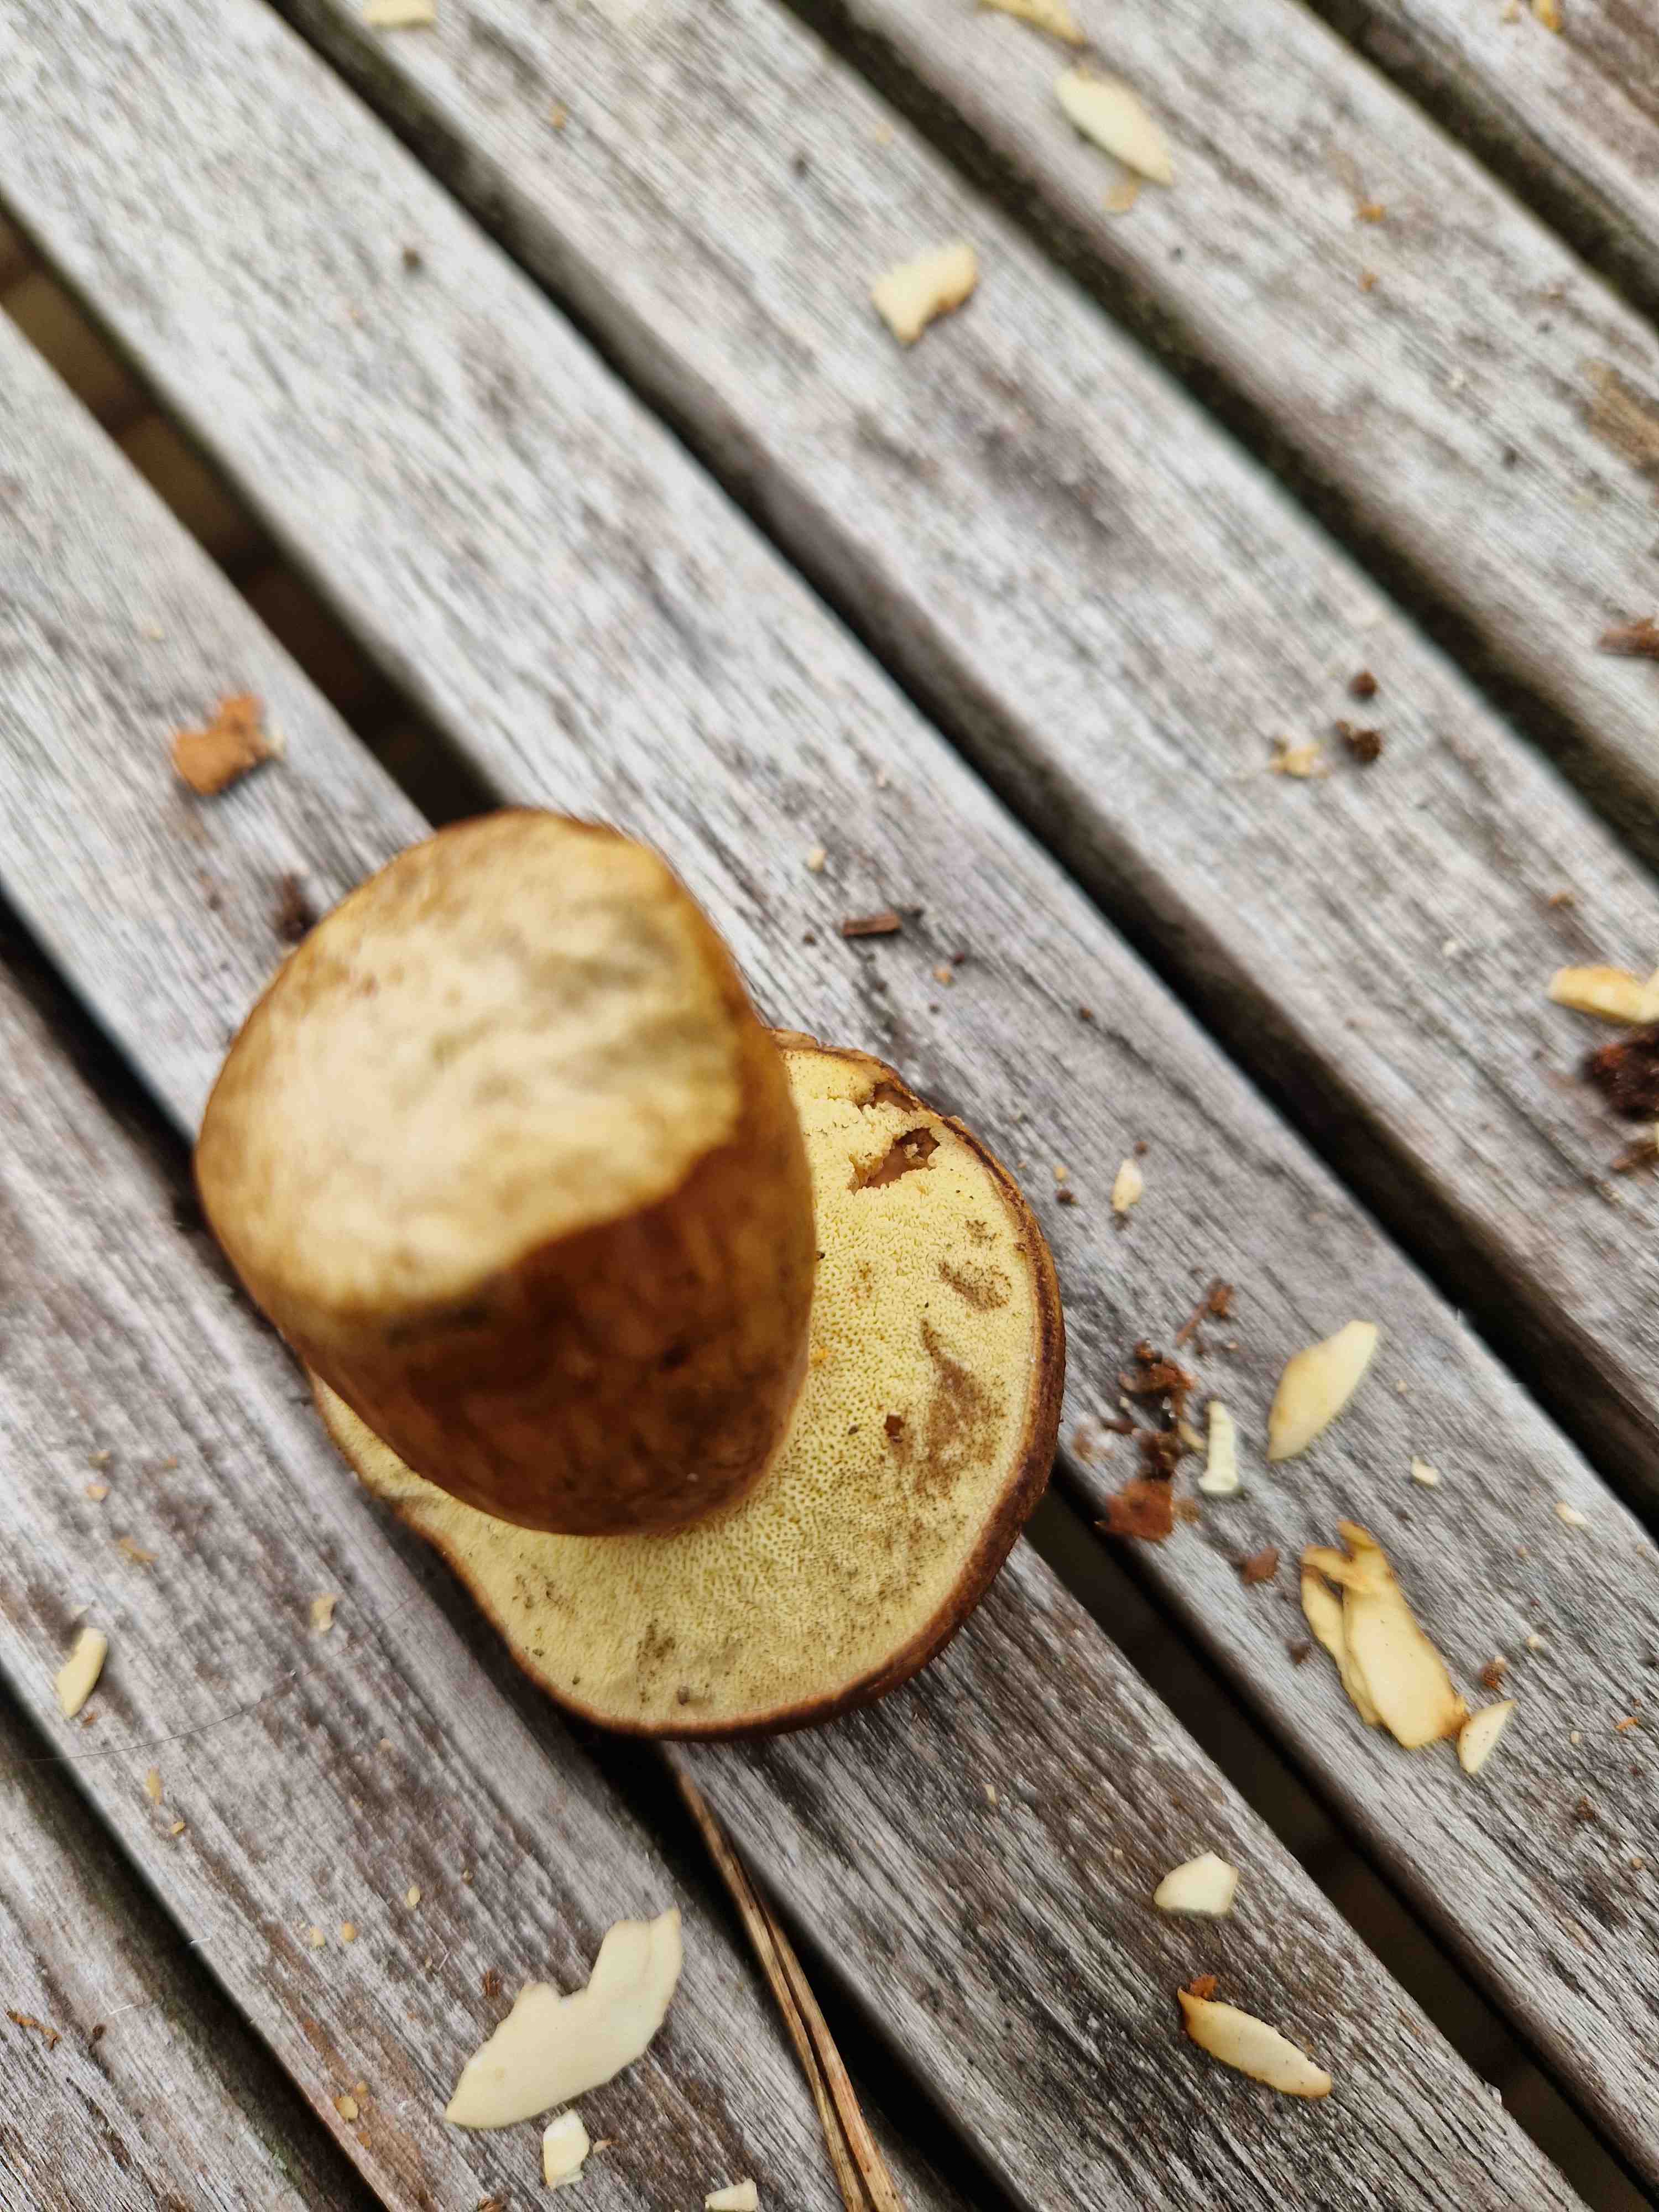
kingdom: Fungi
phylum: Basidiomycota
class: Agaricomycetes
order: Boletales
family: Boletaceae
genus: Imleria
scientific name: Imleria badia
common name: brunstokket rørhat
